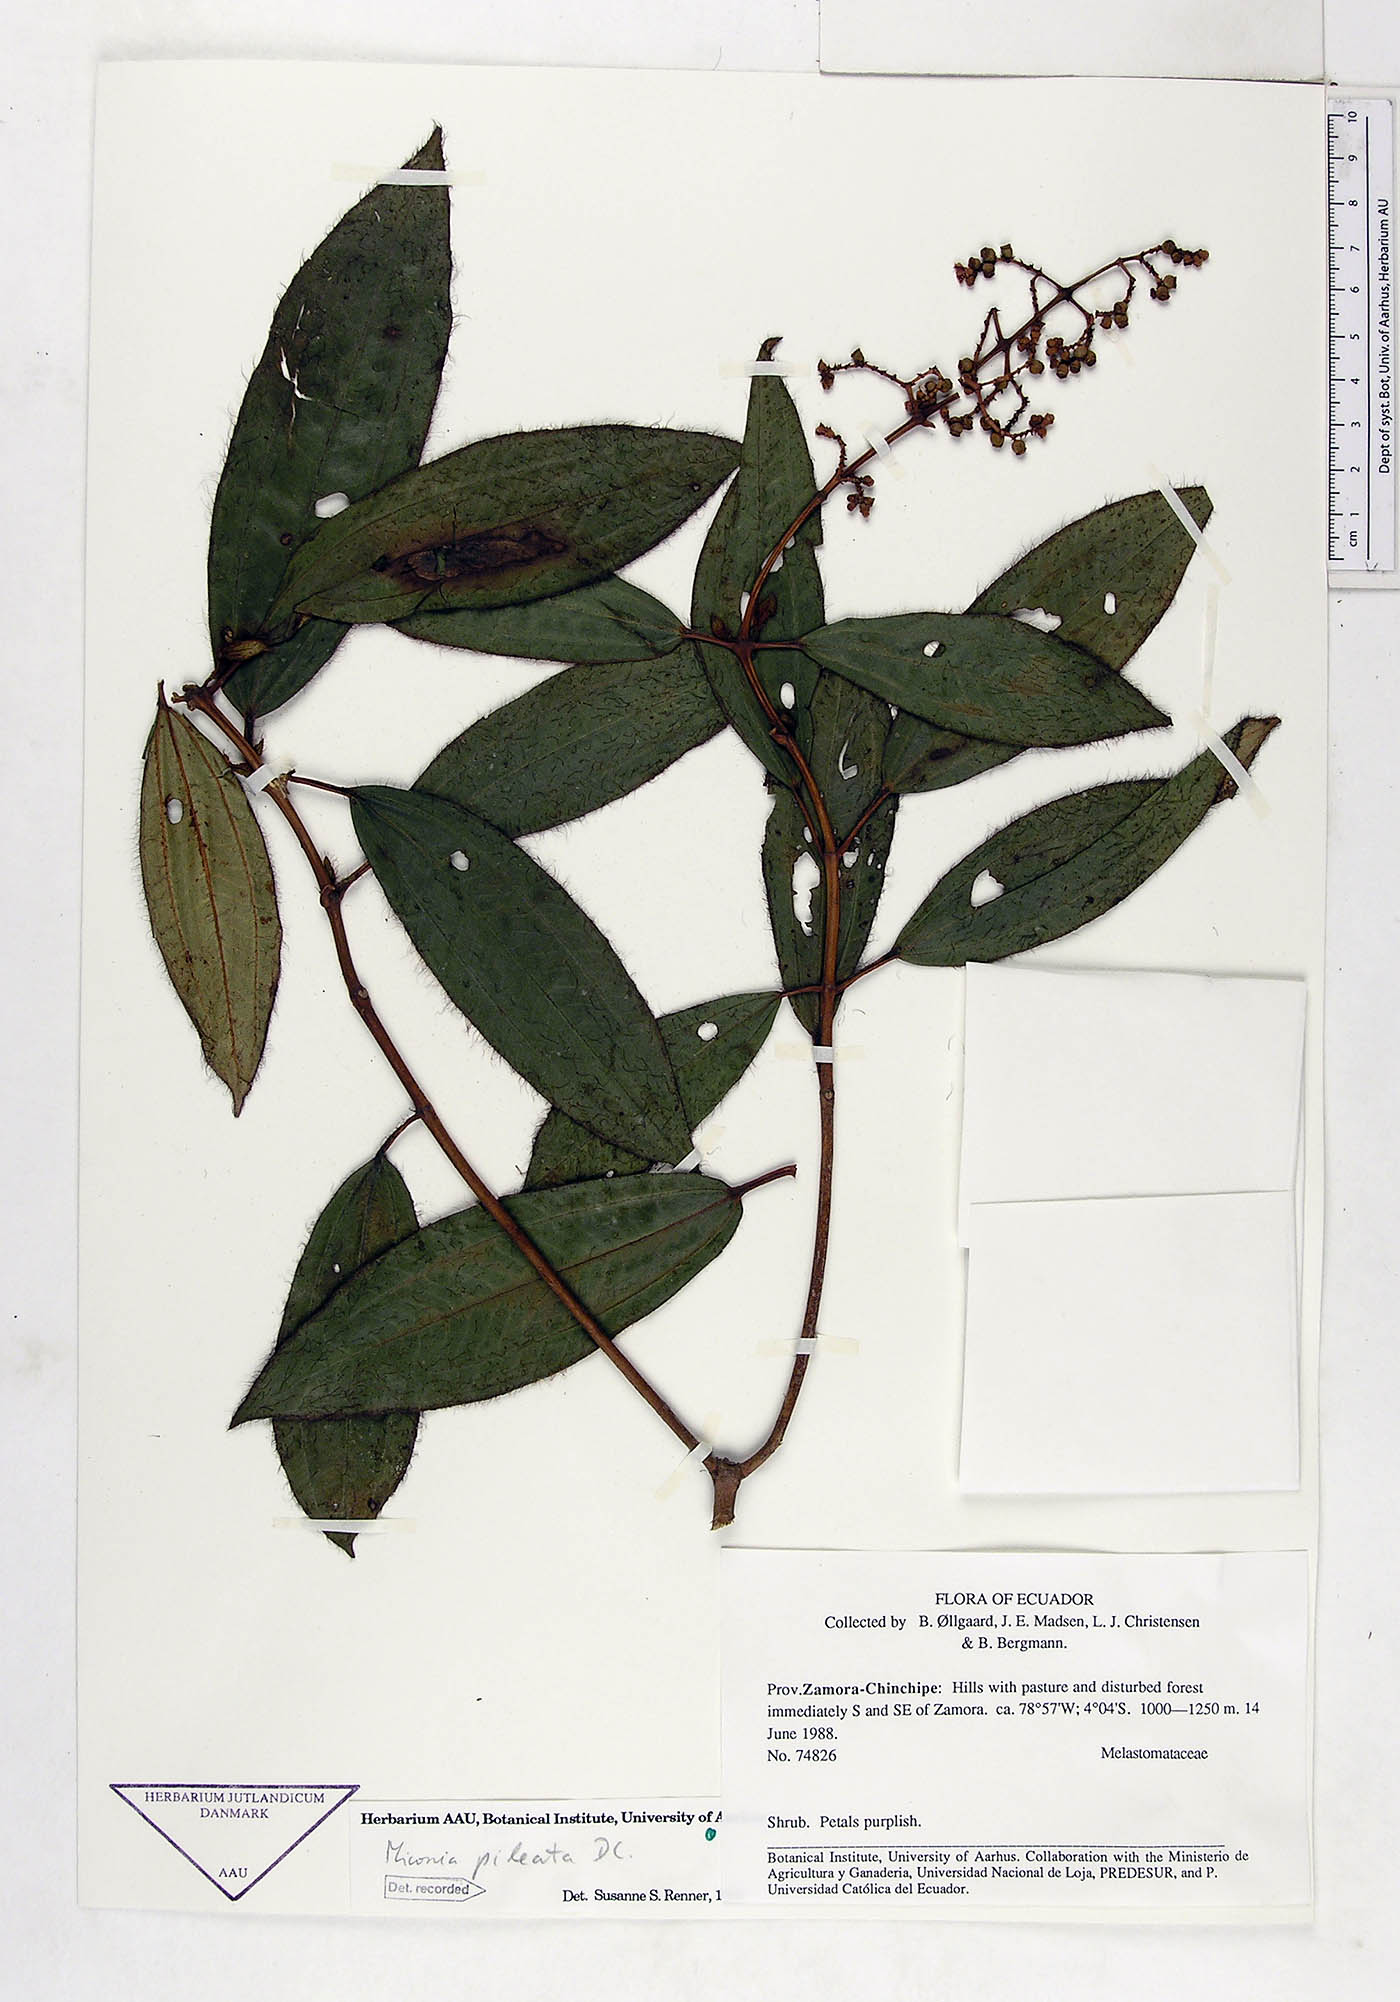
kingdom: Plantae
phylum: Tracheophyta
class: Magnoliopsida
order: Myrtales
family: Melastomataceae
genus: Miconia
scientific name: Miconia pileata
